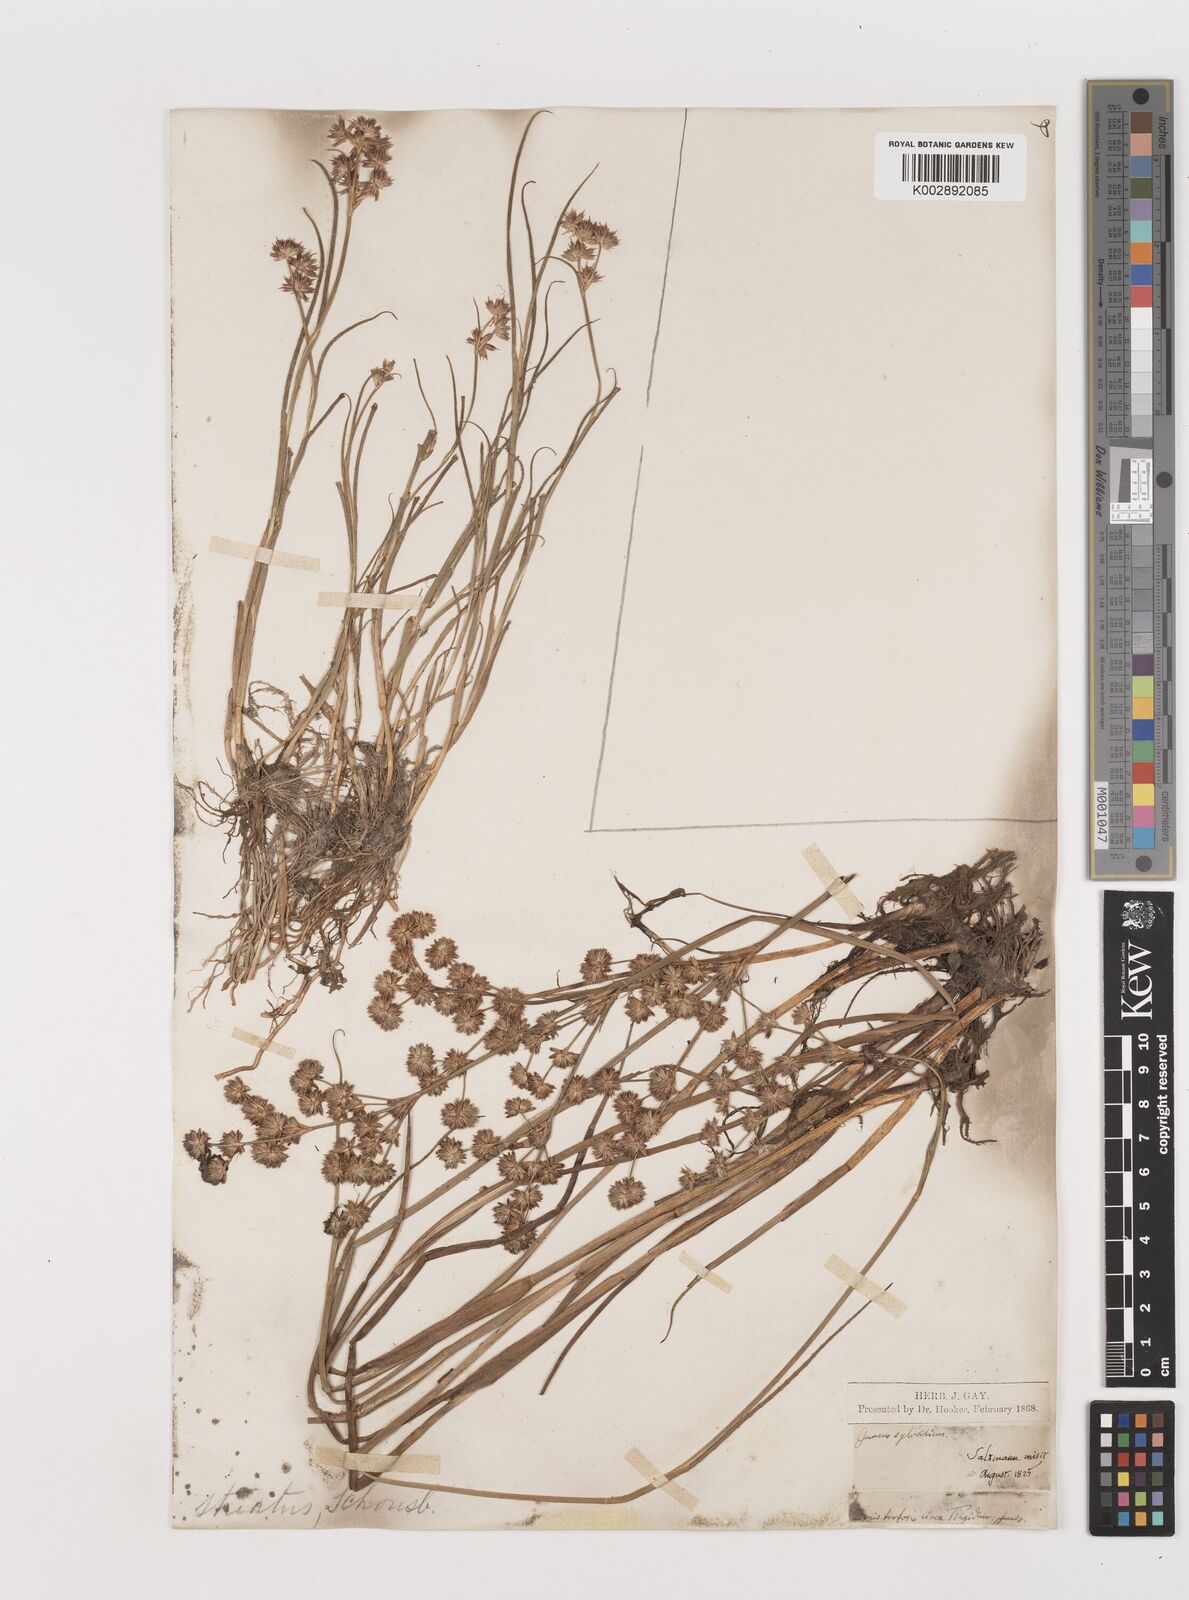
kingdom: Plantae
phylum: Tracheophyta
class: Liliopsida
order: Poales
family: Juncaceae
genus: Juncus
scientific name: Juncus striatus
